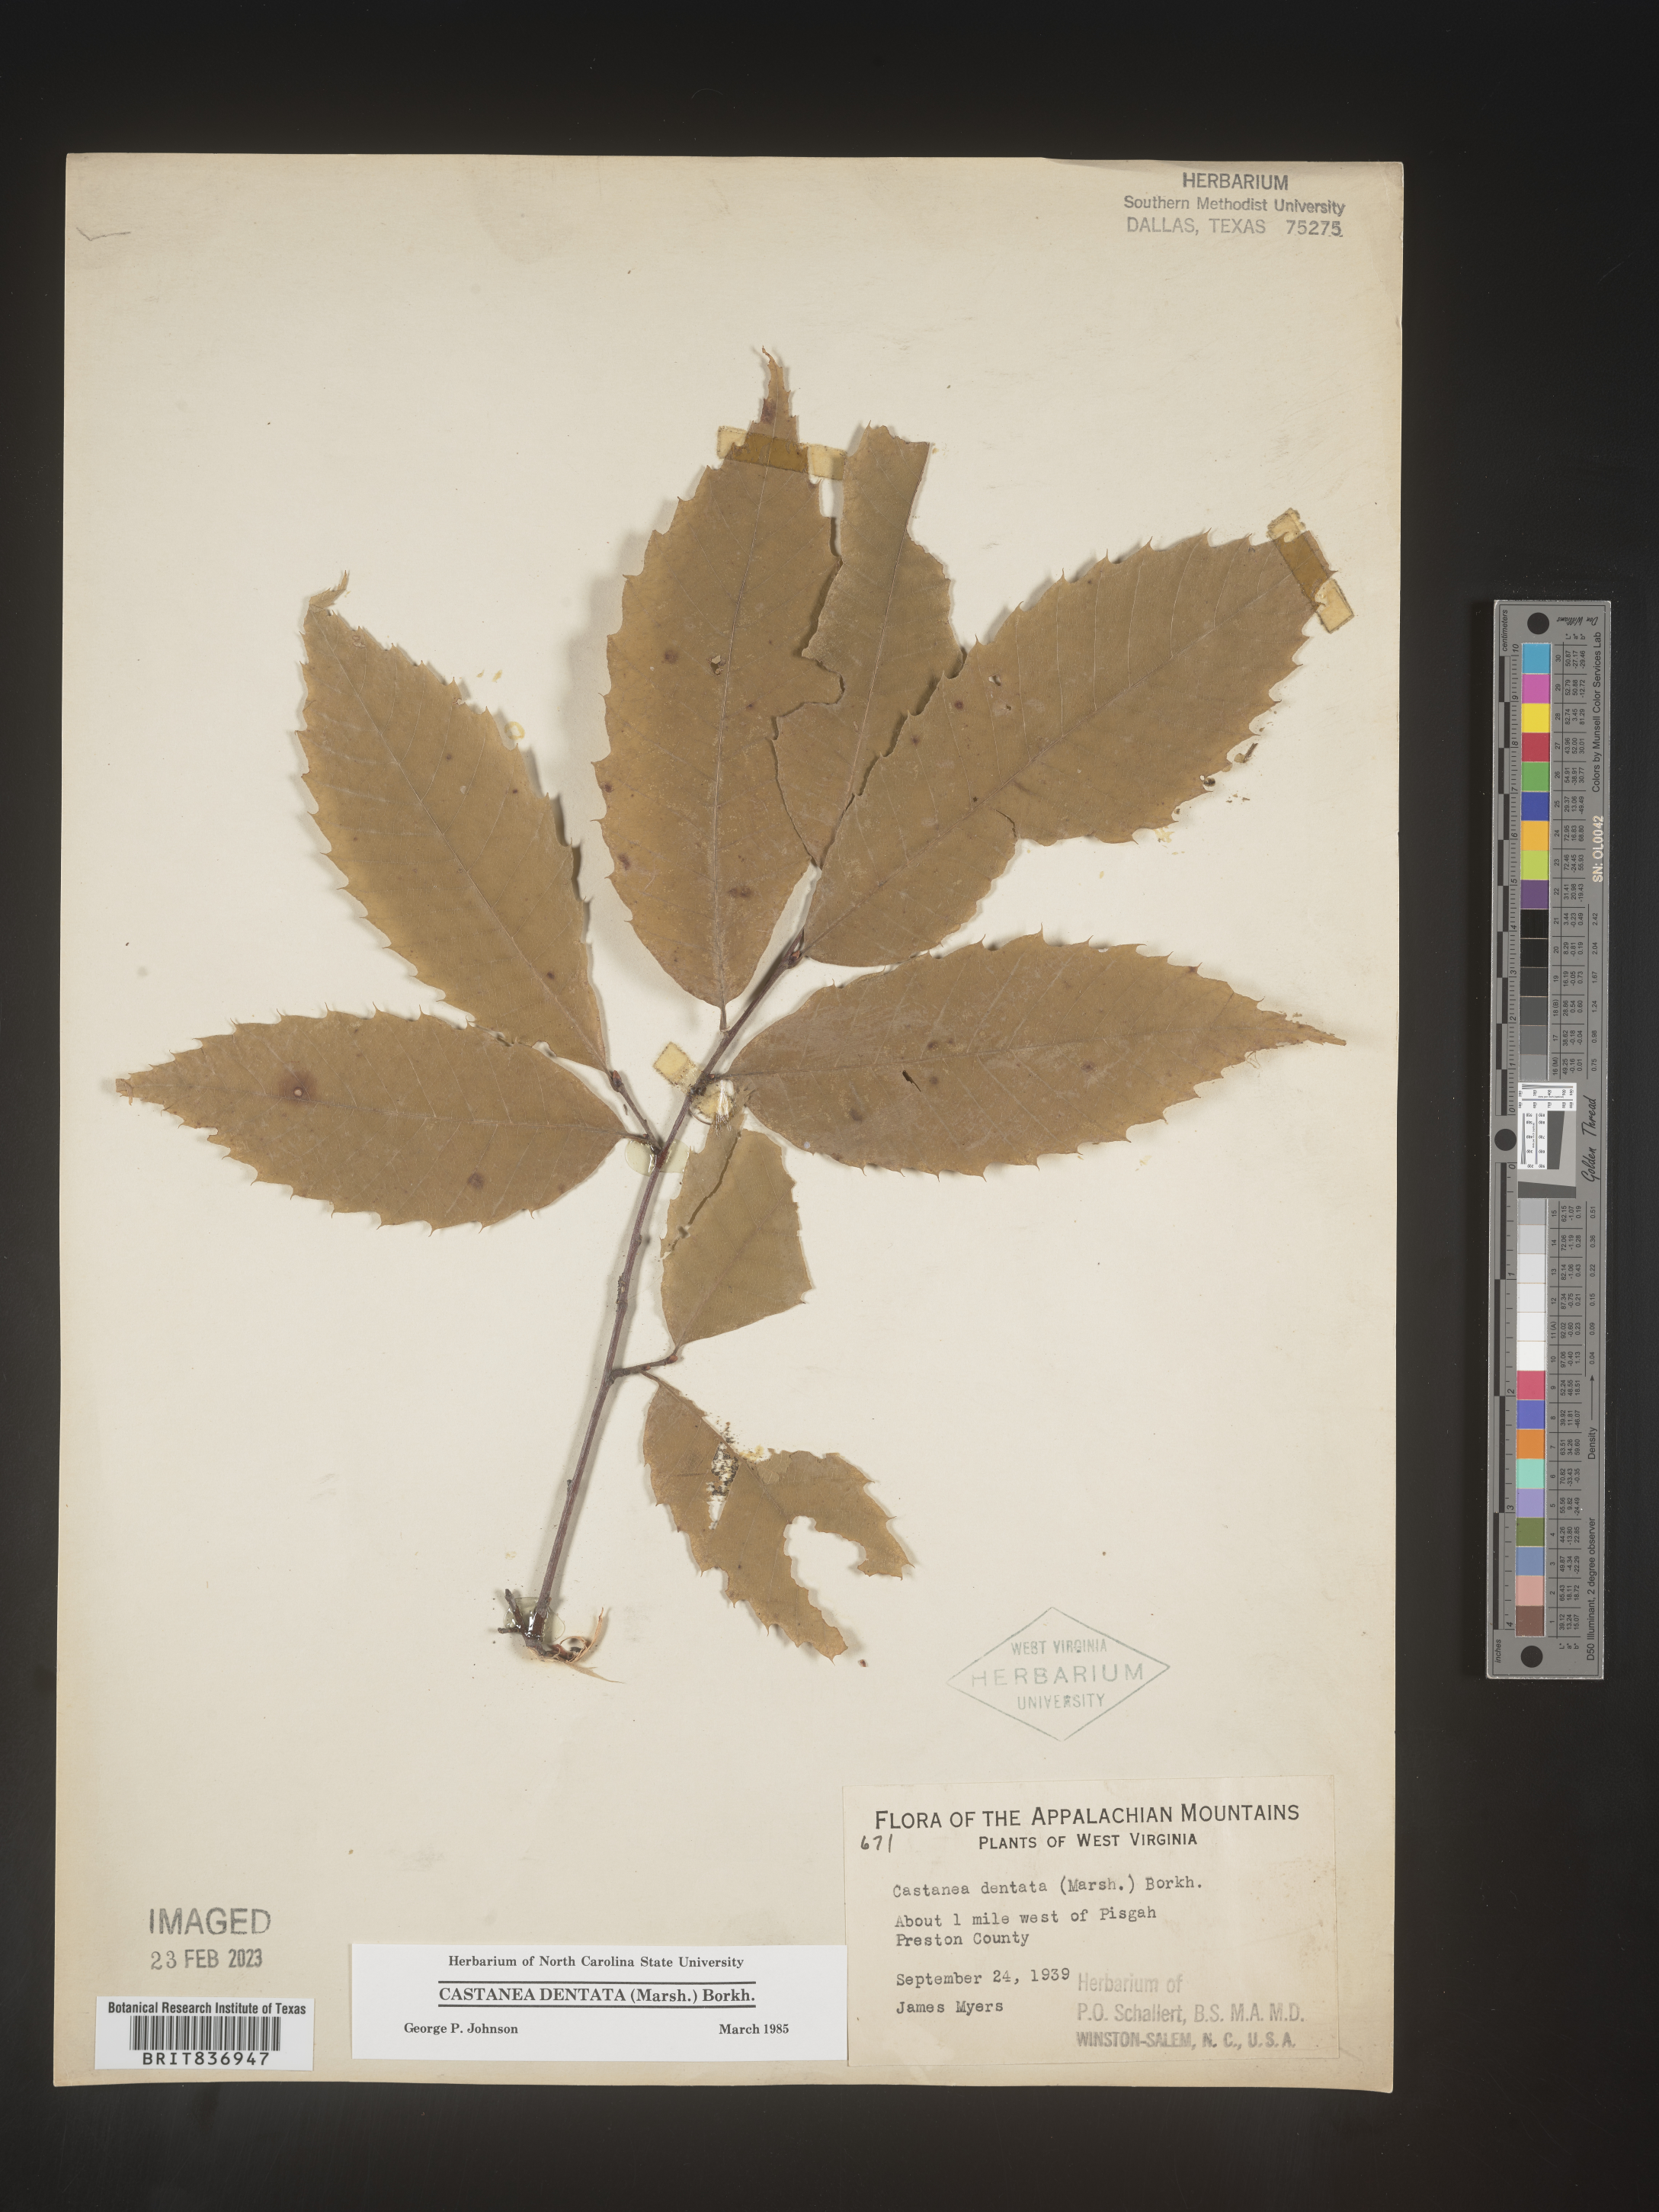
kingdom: Plantae
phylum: Tracheophyta
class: Magnoliopsida
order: Fagales
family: Fagaceae
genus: Castanea
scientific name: Castanea dentata
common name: American chestnut
